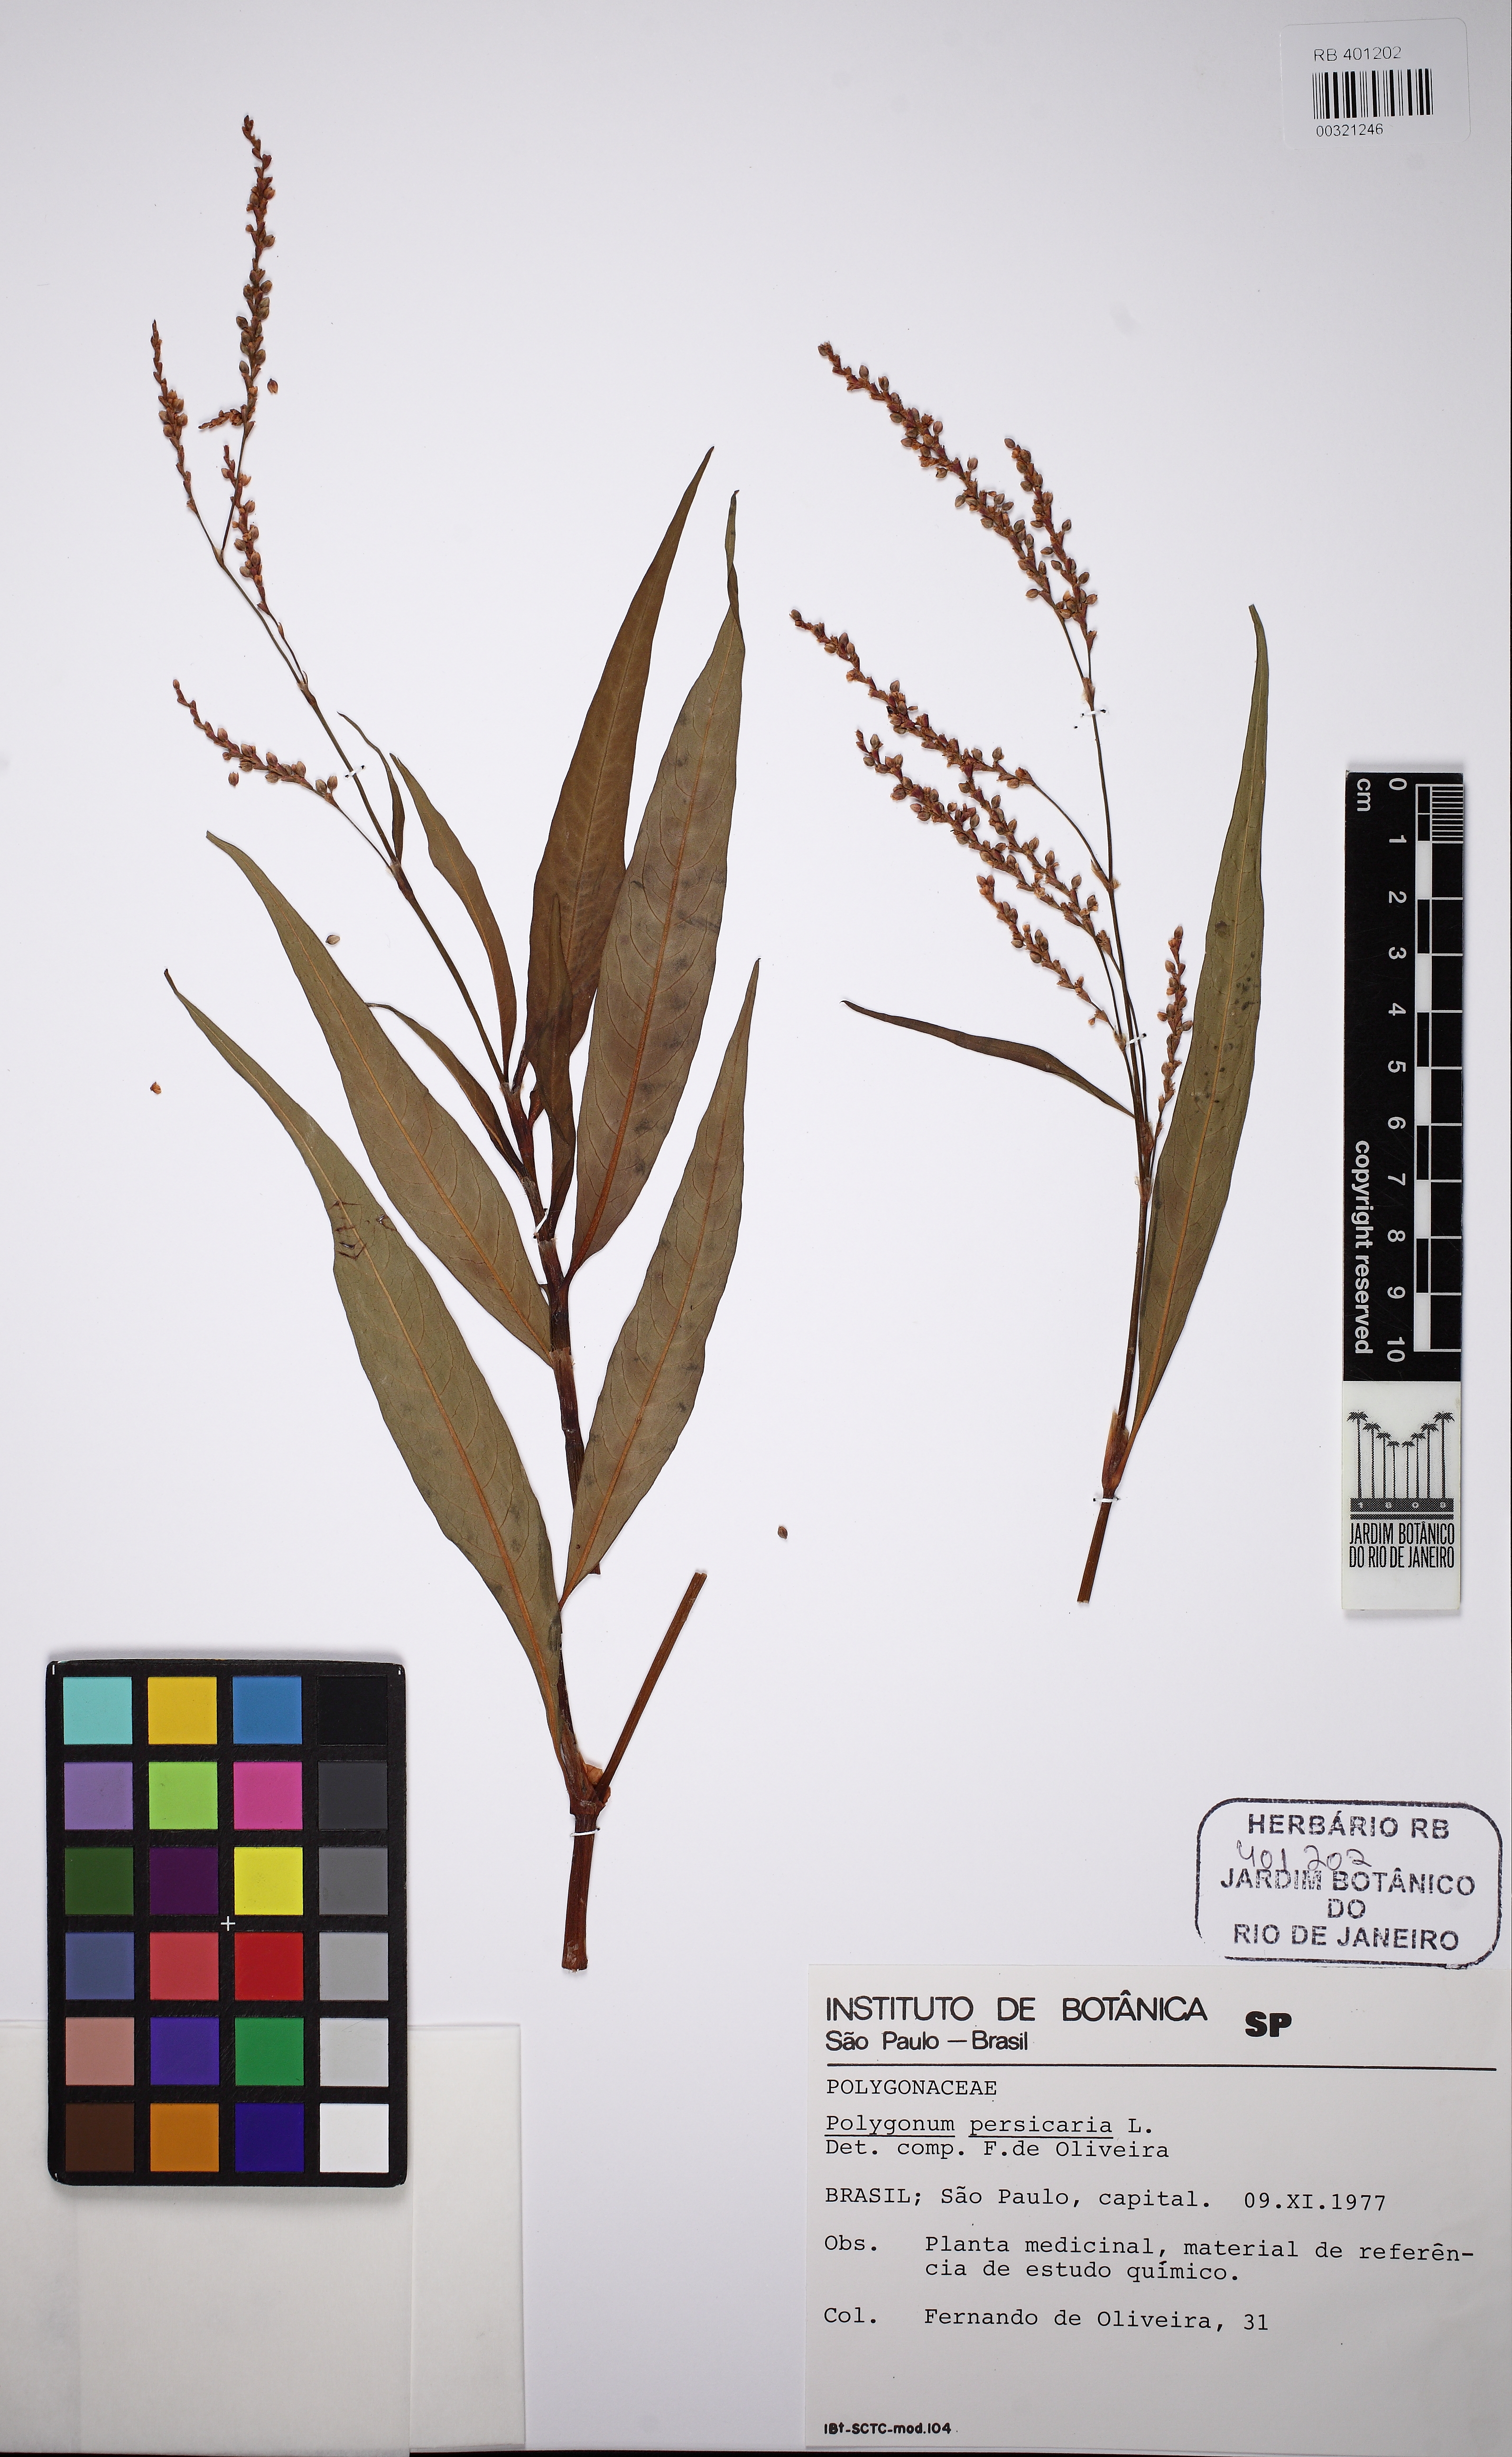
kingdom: Plantae
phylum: Tracheophyta
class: Magnoliopsida
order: Caryophyllales
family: Polygonaceae
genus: Persicaria
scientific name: Persicaria maculosa
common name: Redshank
